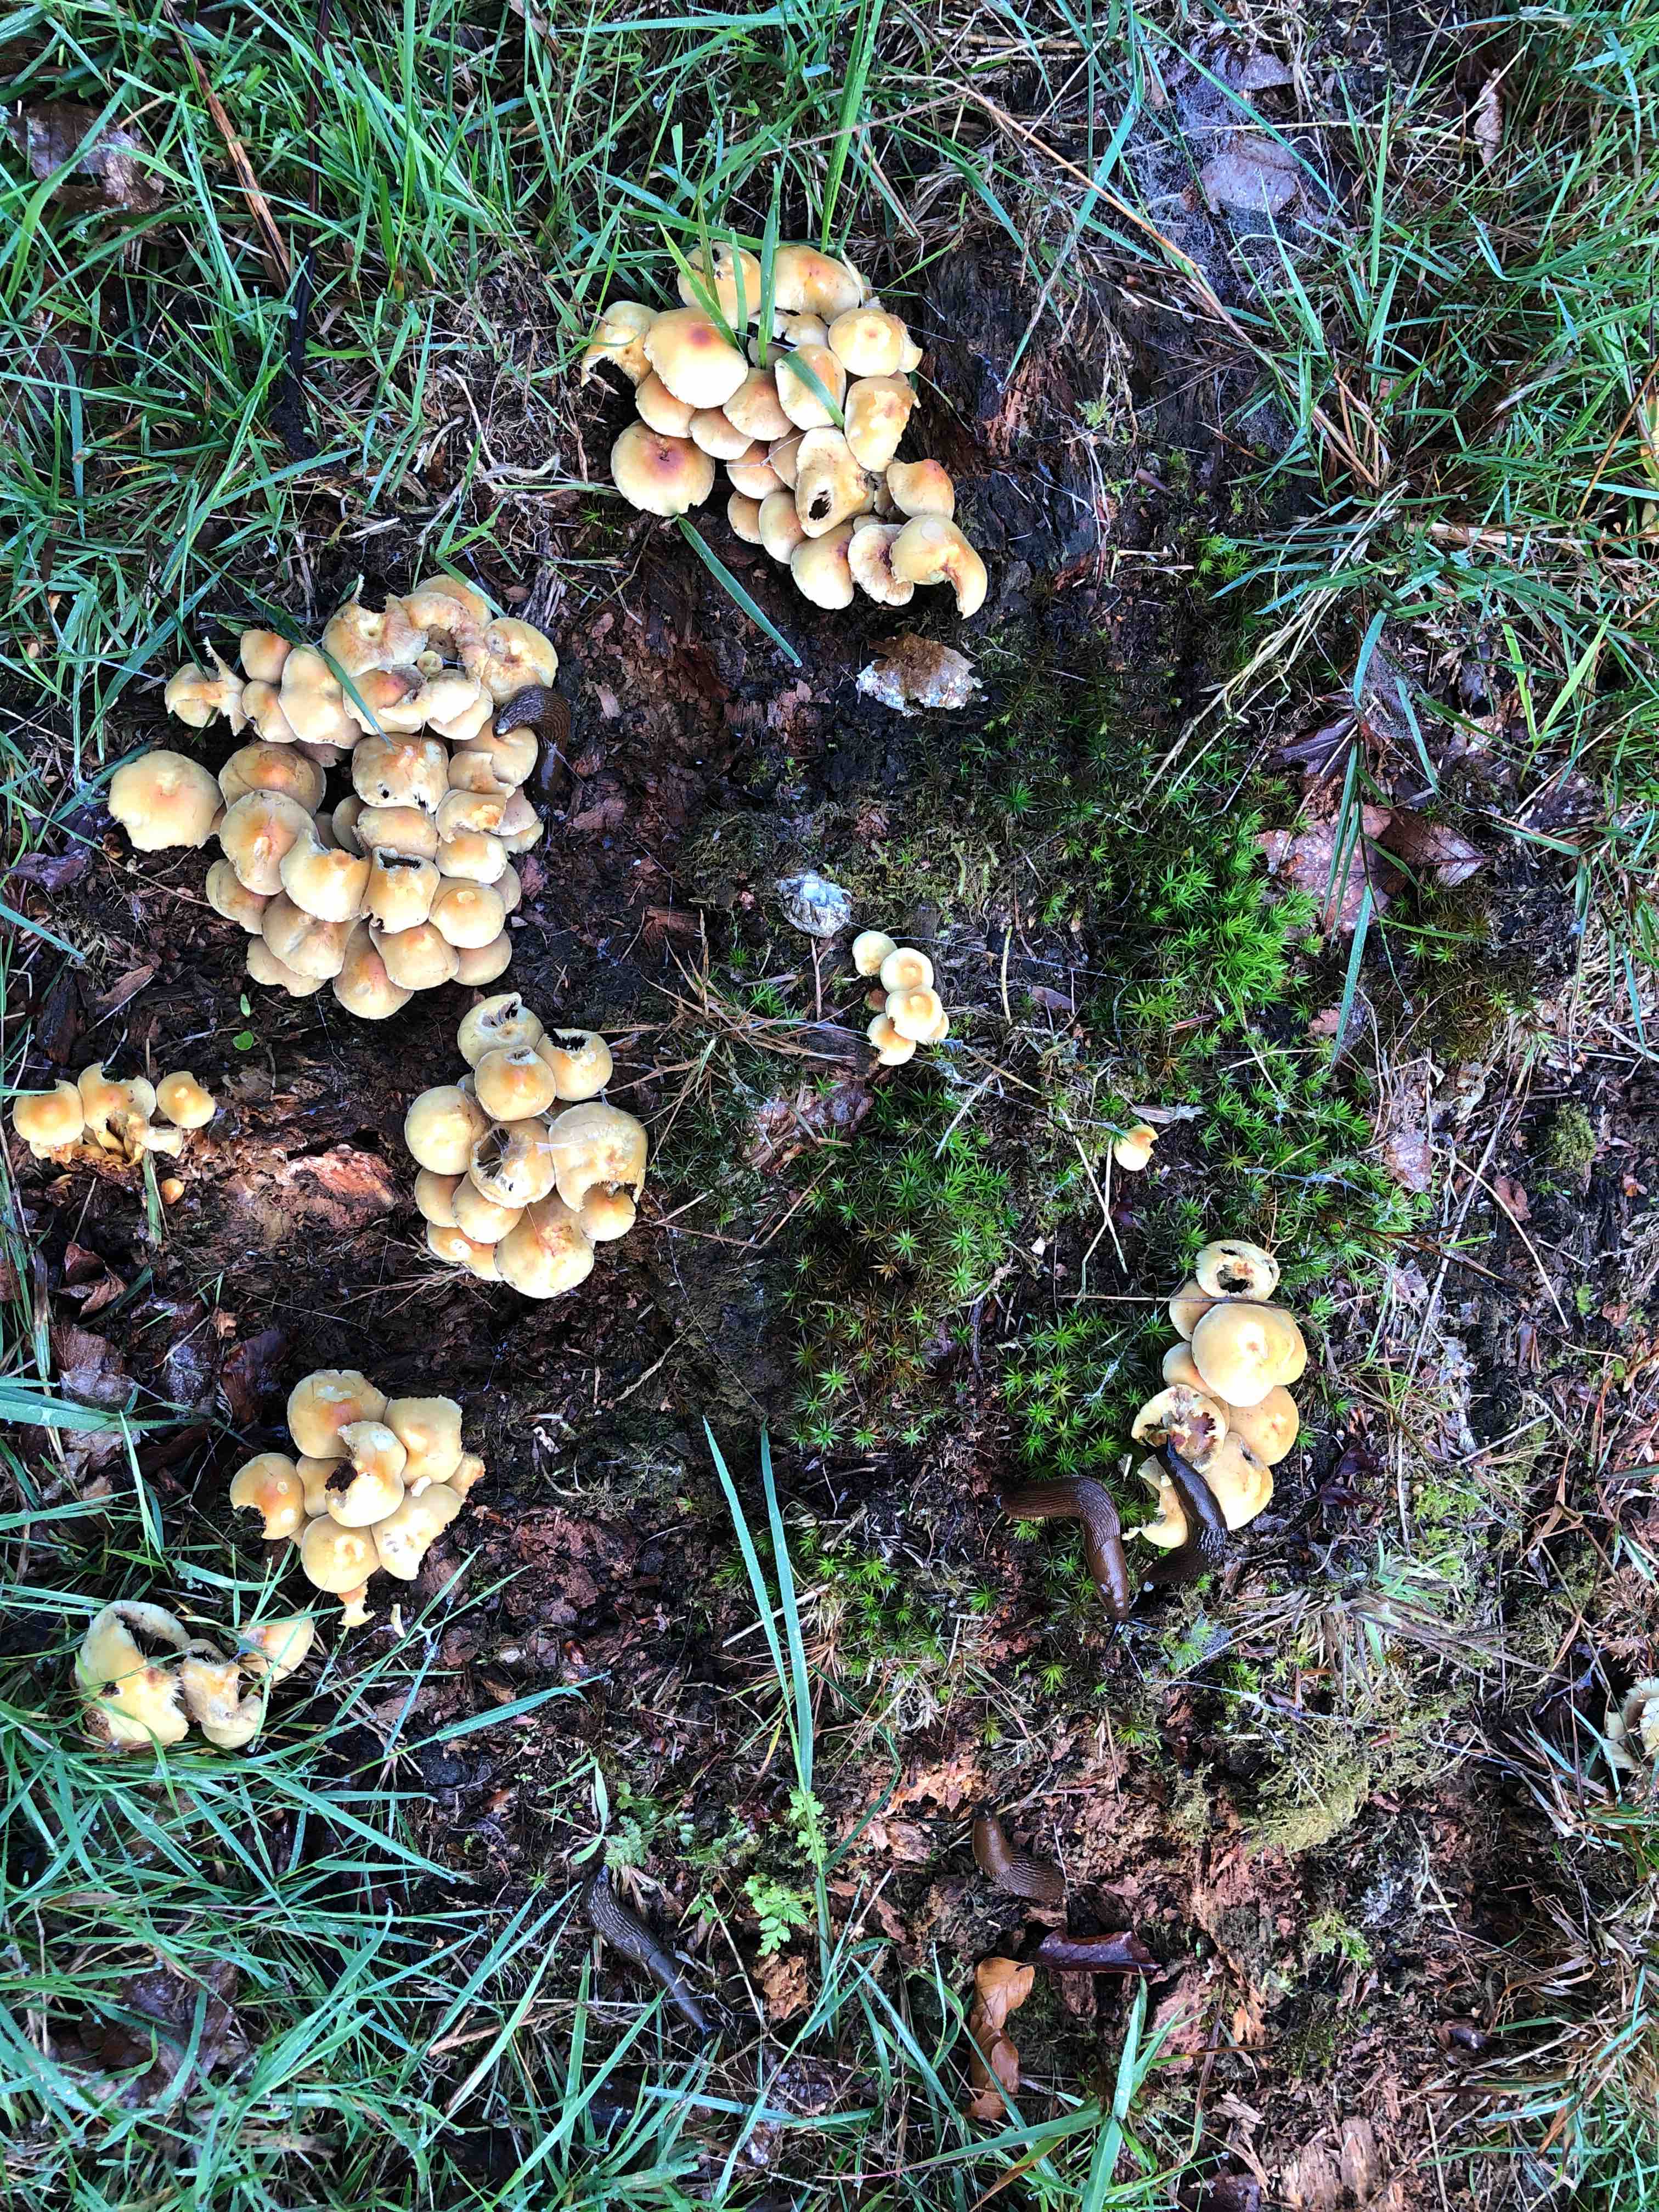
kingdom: Fungi
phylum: Basidiomycota
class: Agaricomycetes
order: Agaricales
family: Strophariaceae
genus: Hypholoma
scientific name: Hypholoma fasciculare
